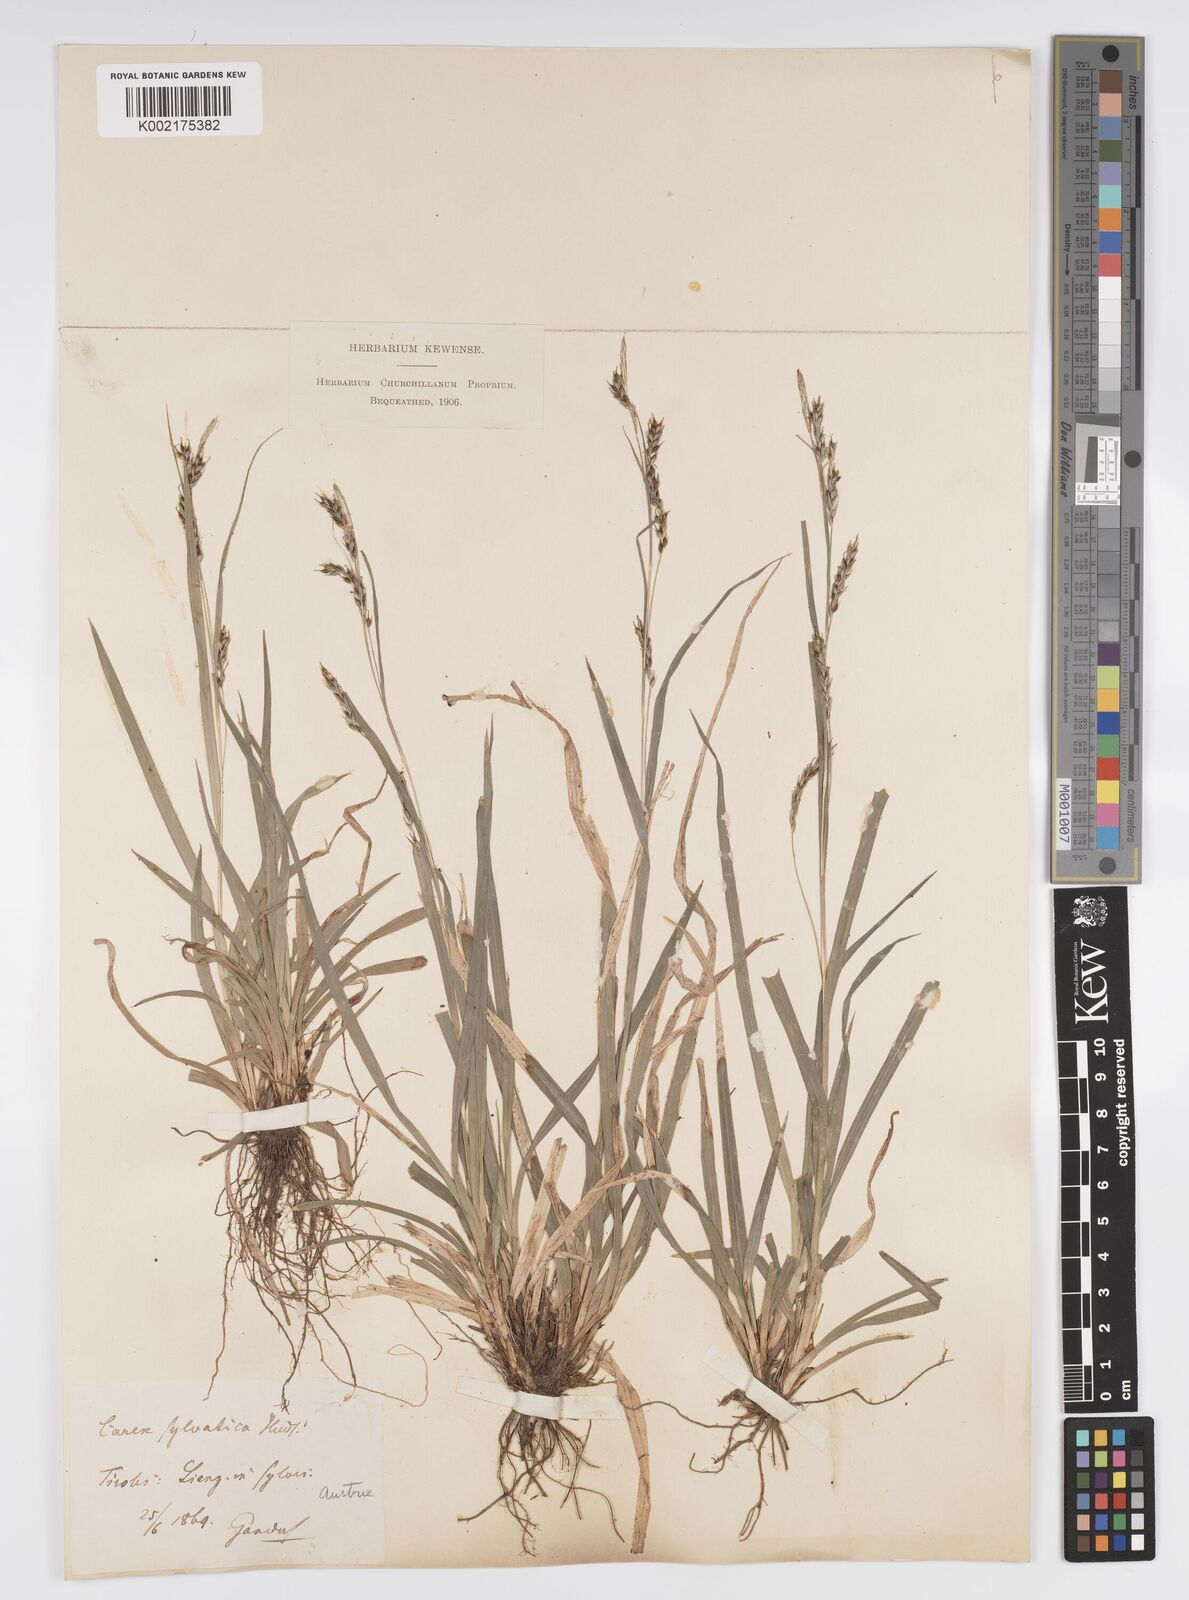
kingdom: Plantae
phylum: Tracheophyta
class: Liliopsida
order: Poales
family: Cyperaceae
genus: Carex
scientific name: Carex sylvatica
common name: Wood-sedge
